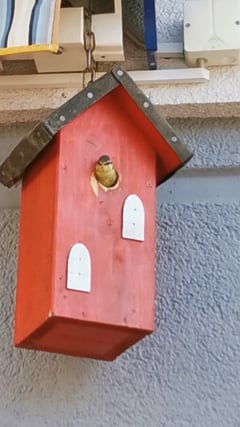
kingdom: Animalia
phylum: Chordata
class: Aves
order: Passeriformes
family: Paridae
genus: Cyanistes
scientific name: Cyanistes caeruleus
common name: Eurasian blue tit
